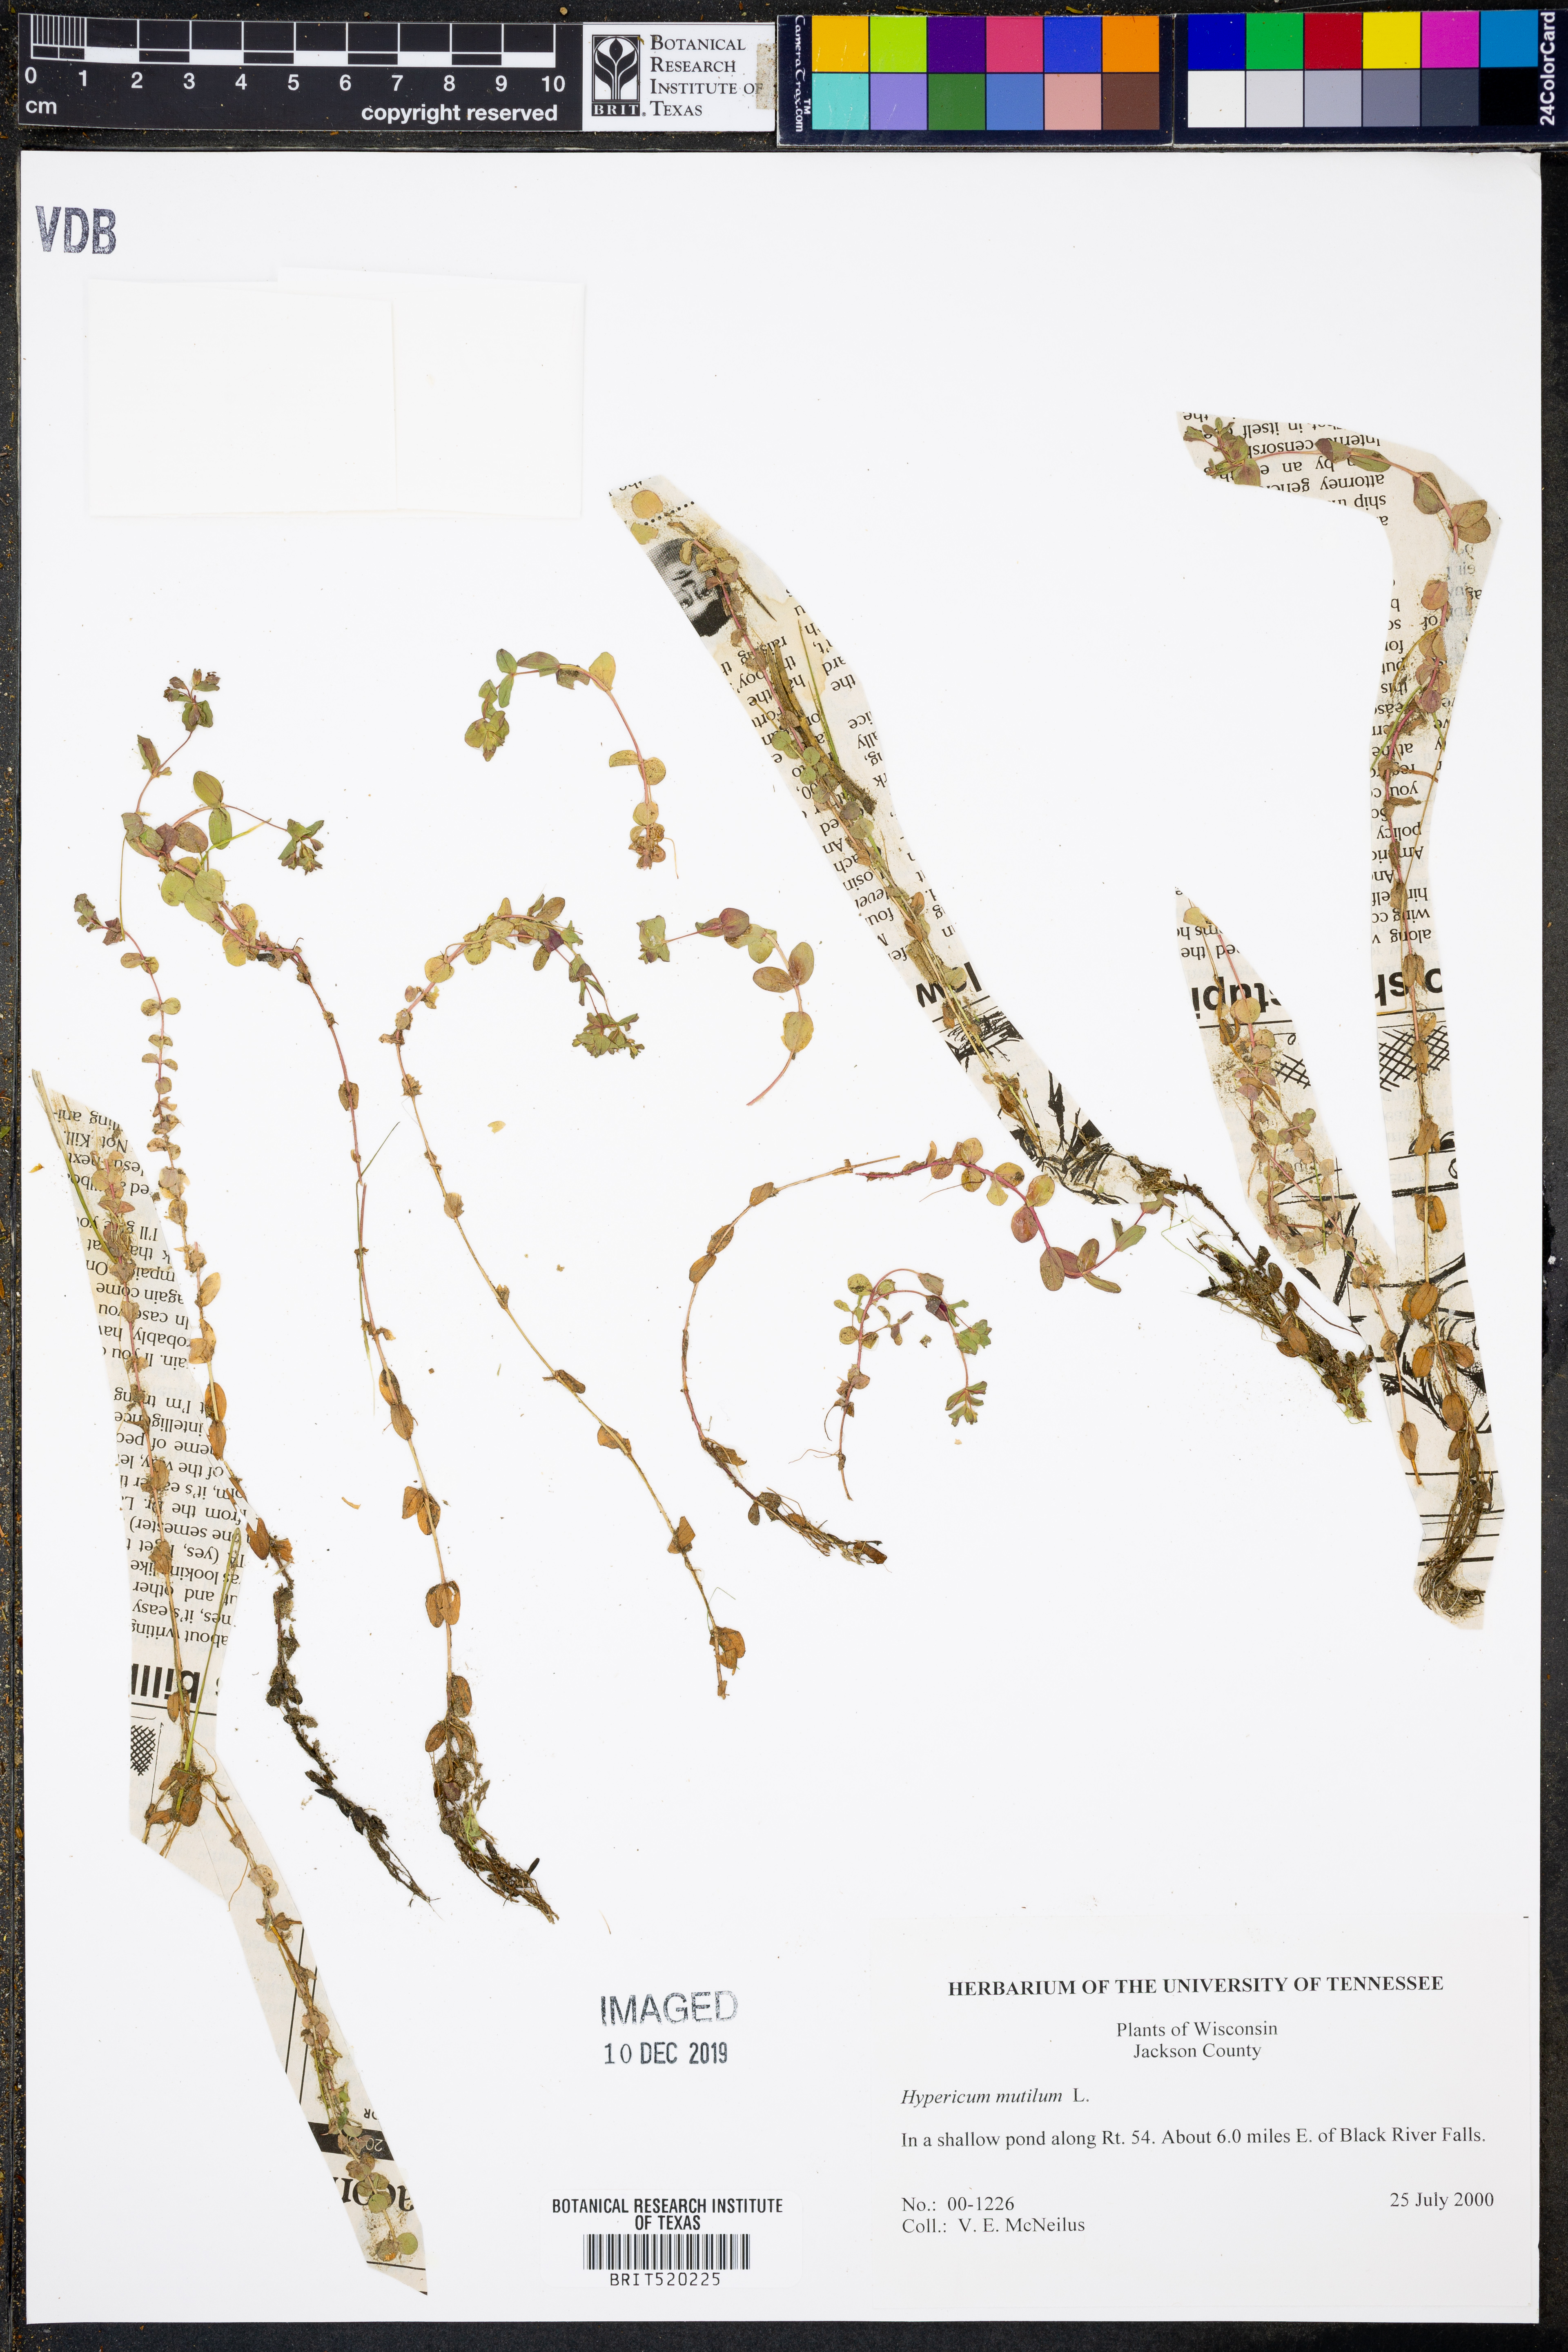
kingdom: Plantae
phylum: Tracheophyta
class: Magnoliopsida
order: Malpighiales
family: Hypericaceae
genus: Hypericum
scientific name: Hypericum mutilum
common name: Dwarf st. john's-wort
